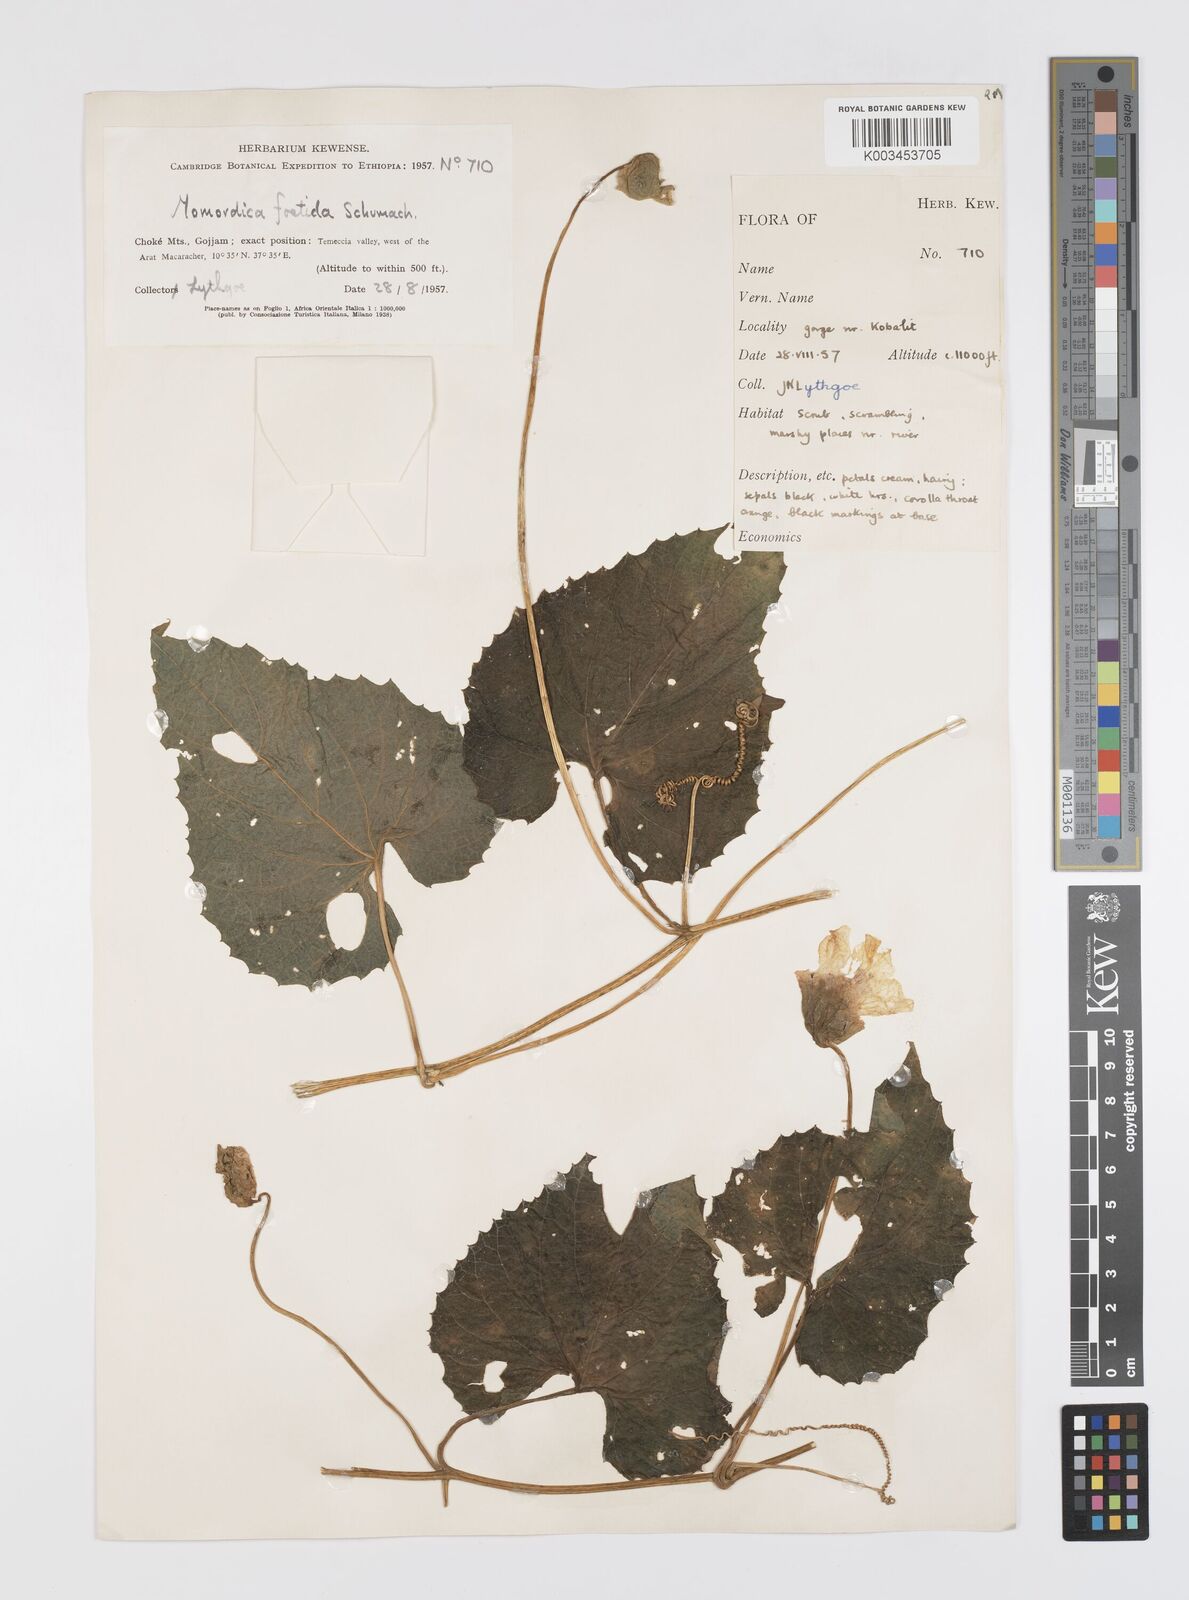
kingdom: Plantae
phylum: Tracheophyta
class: Magnoliopsida
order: Cucurbitales
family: Cucurbitaceae
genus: Momordica
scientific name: Momordica foetida
